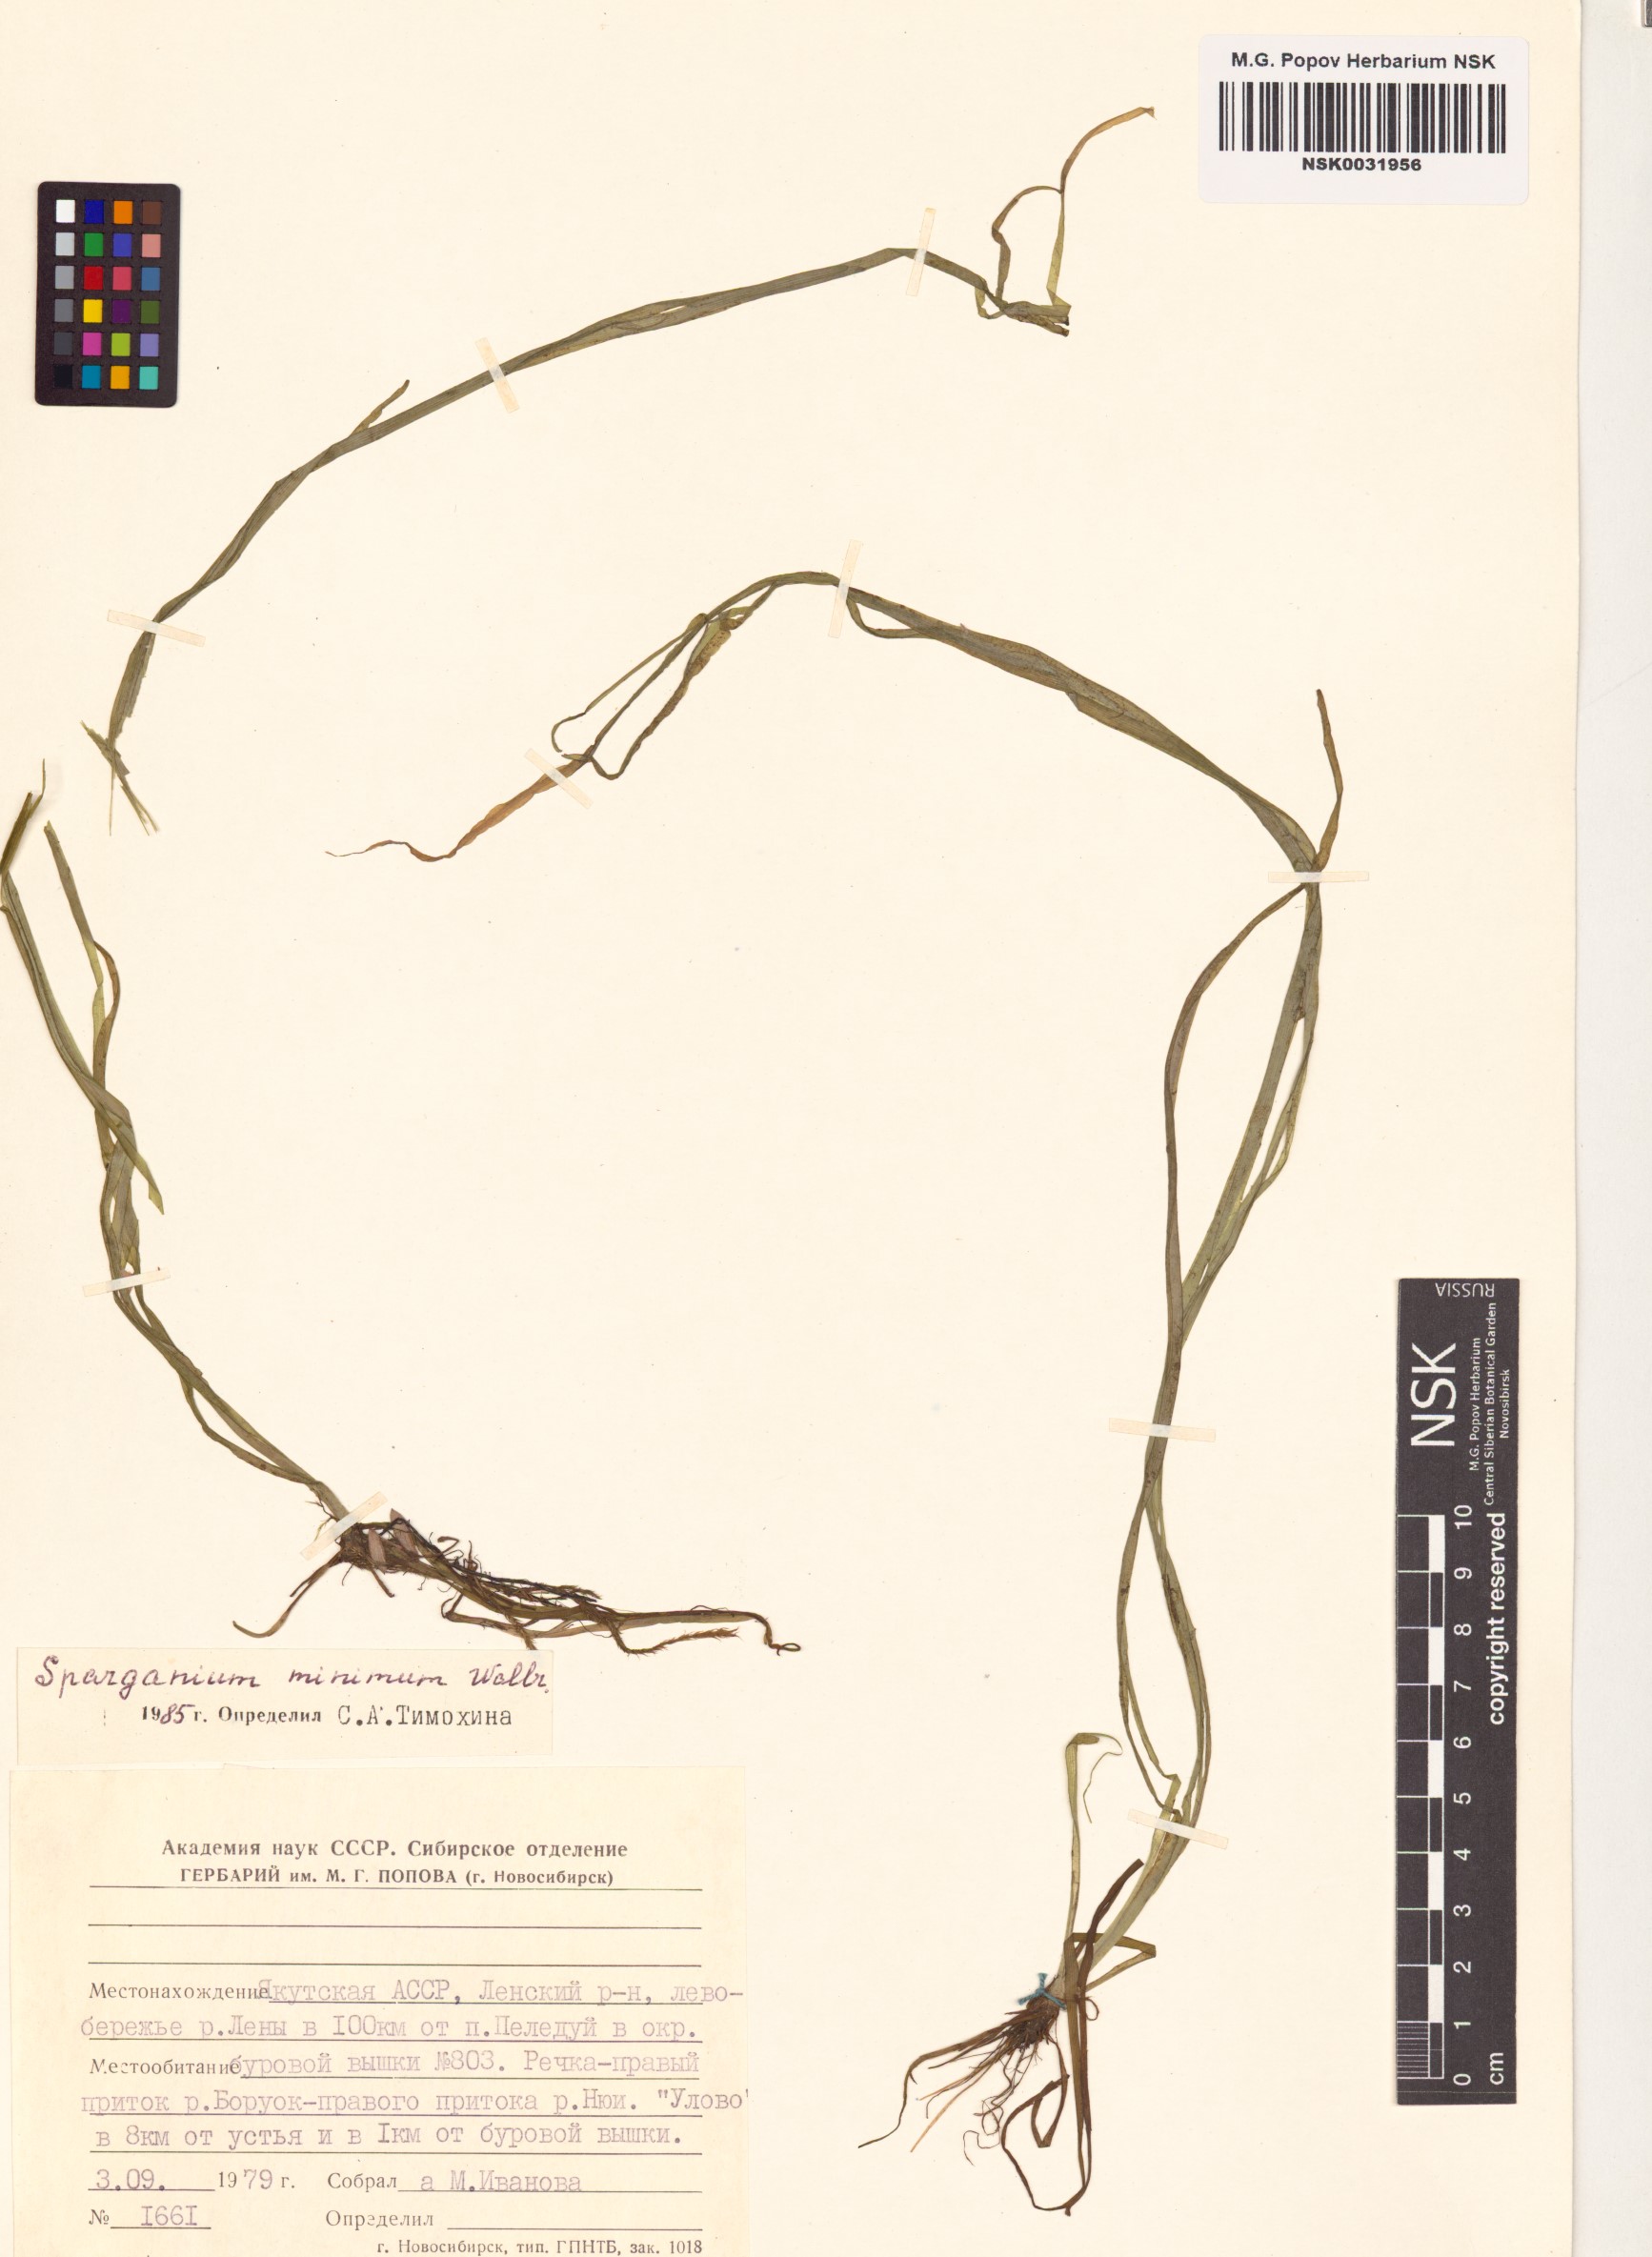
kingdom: Plantae
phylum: Tracheophyta
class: Liliopsida
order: Poales
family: Typhaceae
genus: Sparganium
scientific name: Sparganium natans
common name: Least bur-reed
